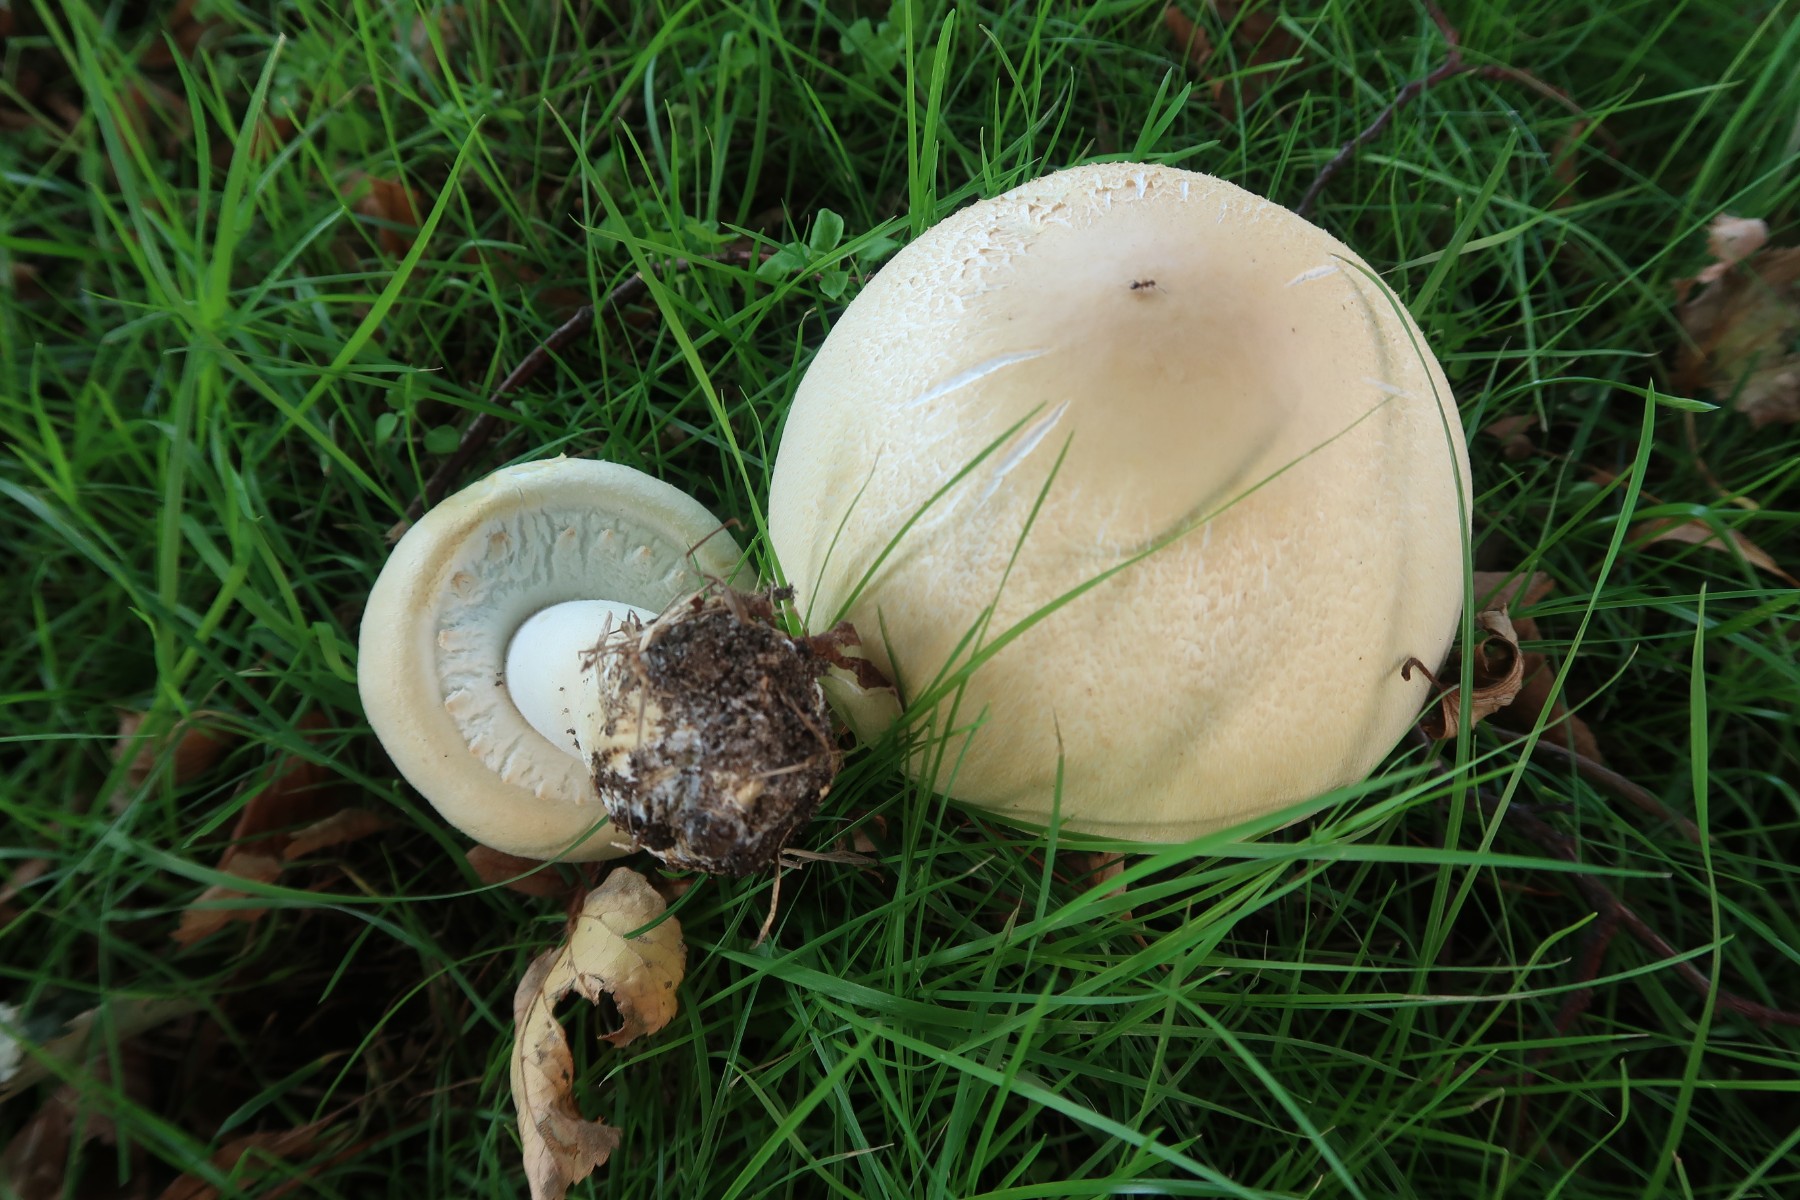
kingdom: Fungi
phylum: Basidiomycota
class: Agaricomycetes
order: Agaricales
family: Agaricaceae
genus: Agaricus
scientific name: Agaricus arvensis
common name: ager-champignon
